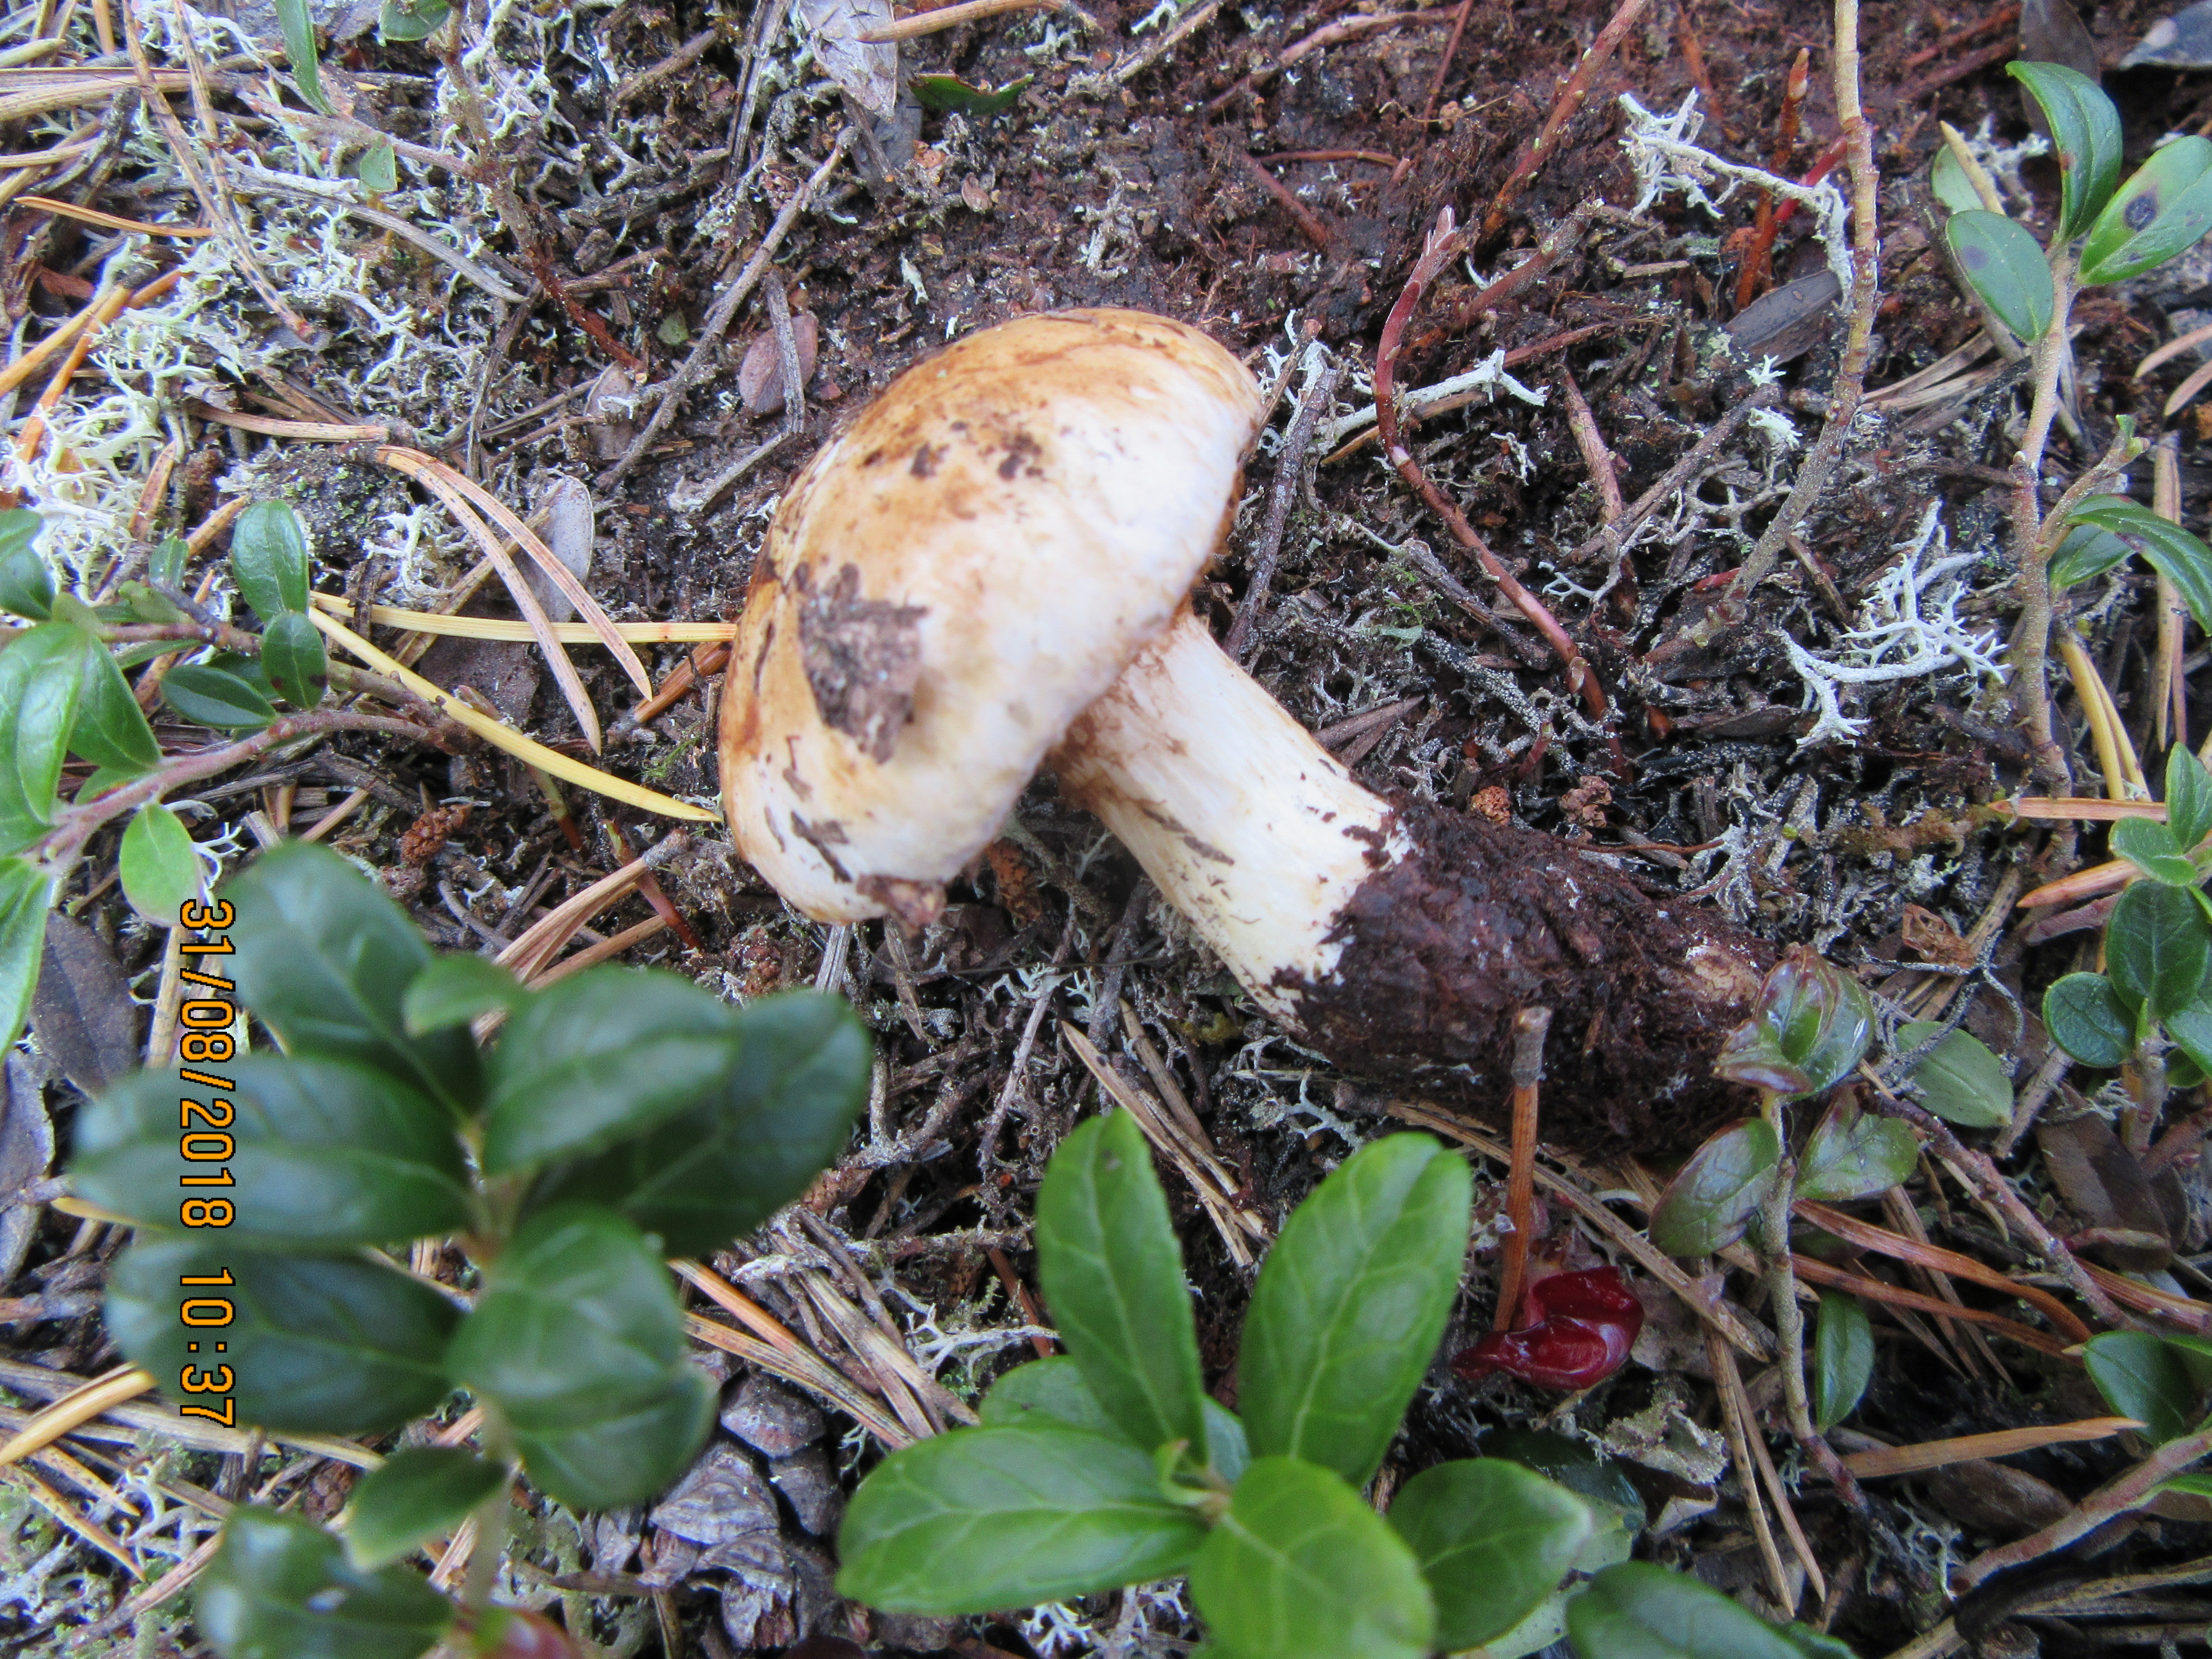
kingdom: Fungi
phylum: Basidiomycota
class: Agaricomycetes
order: Agaricales
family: Cortinariaceae
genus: Phlegmacium
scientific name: Phlegmacium balteatum
